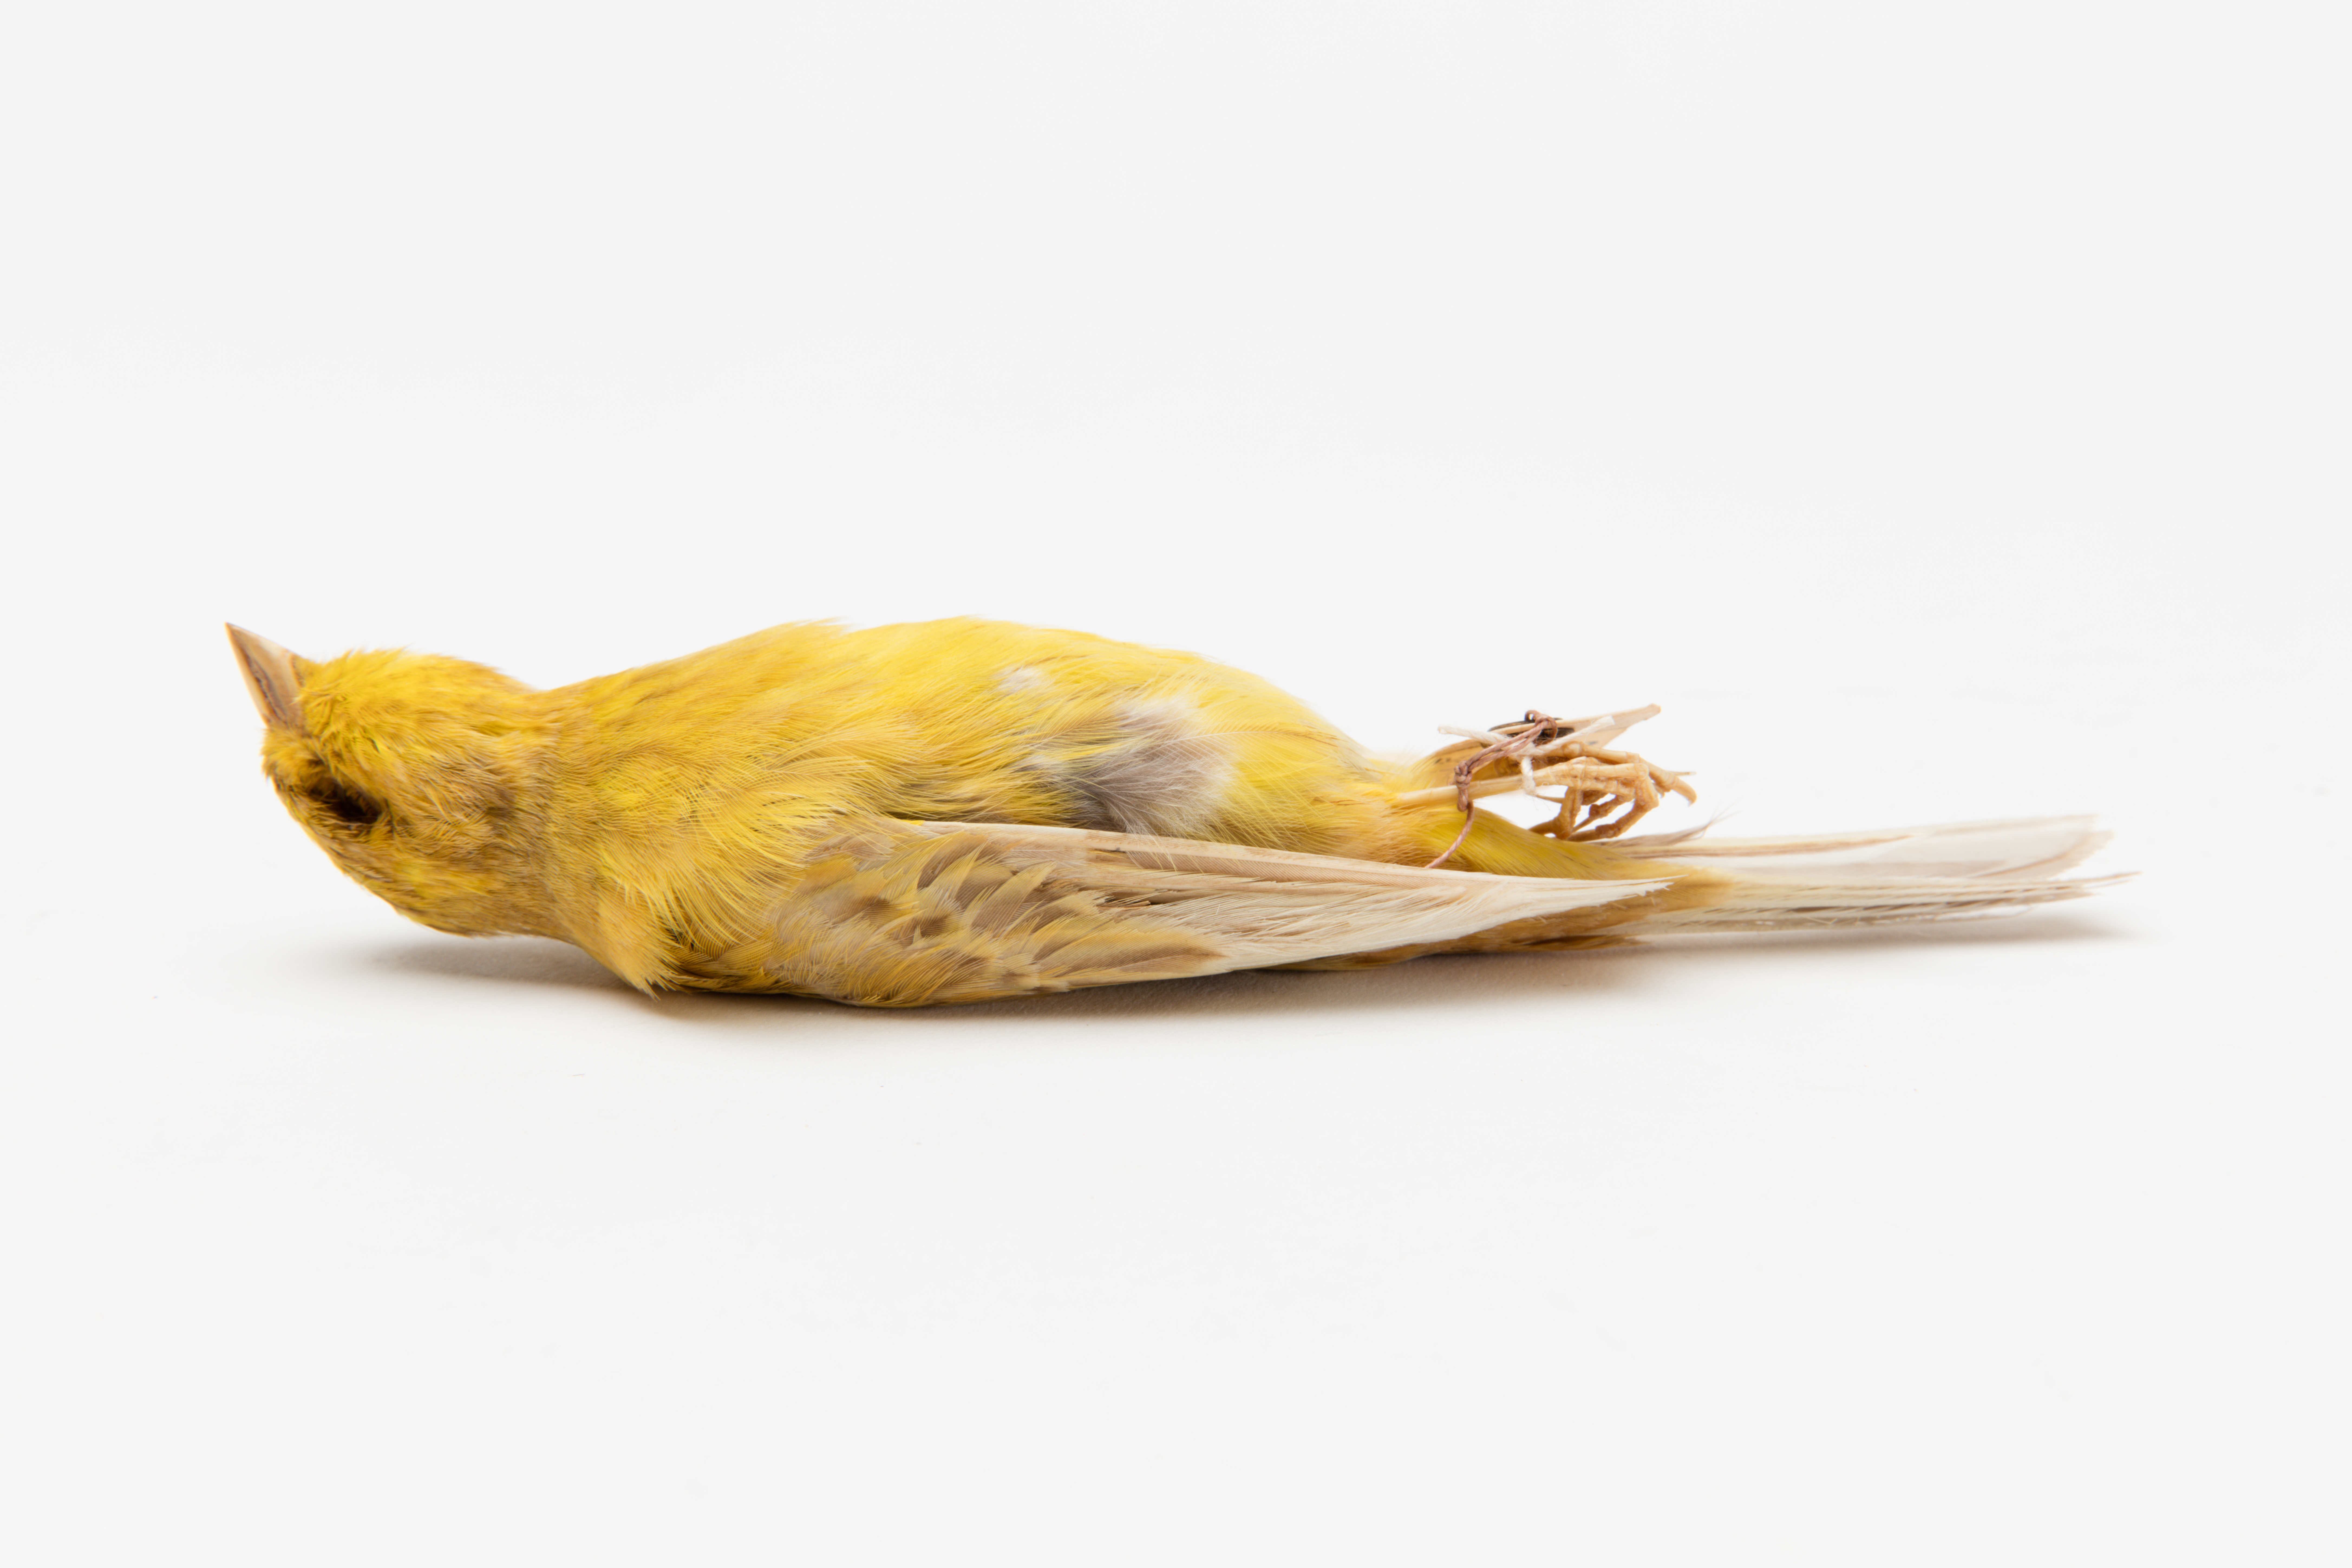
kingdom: Animalia
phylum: Chordata
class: Aves
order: Passeriformes
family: Fringillidae
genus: Serinus
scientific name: Serinus canaria
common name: Atlantic canary
